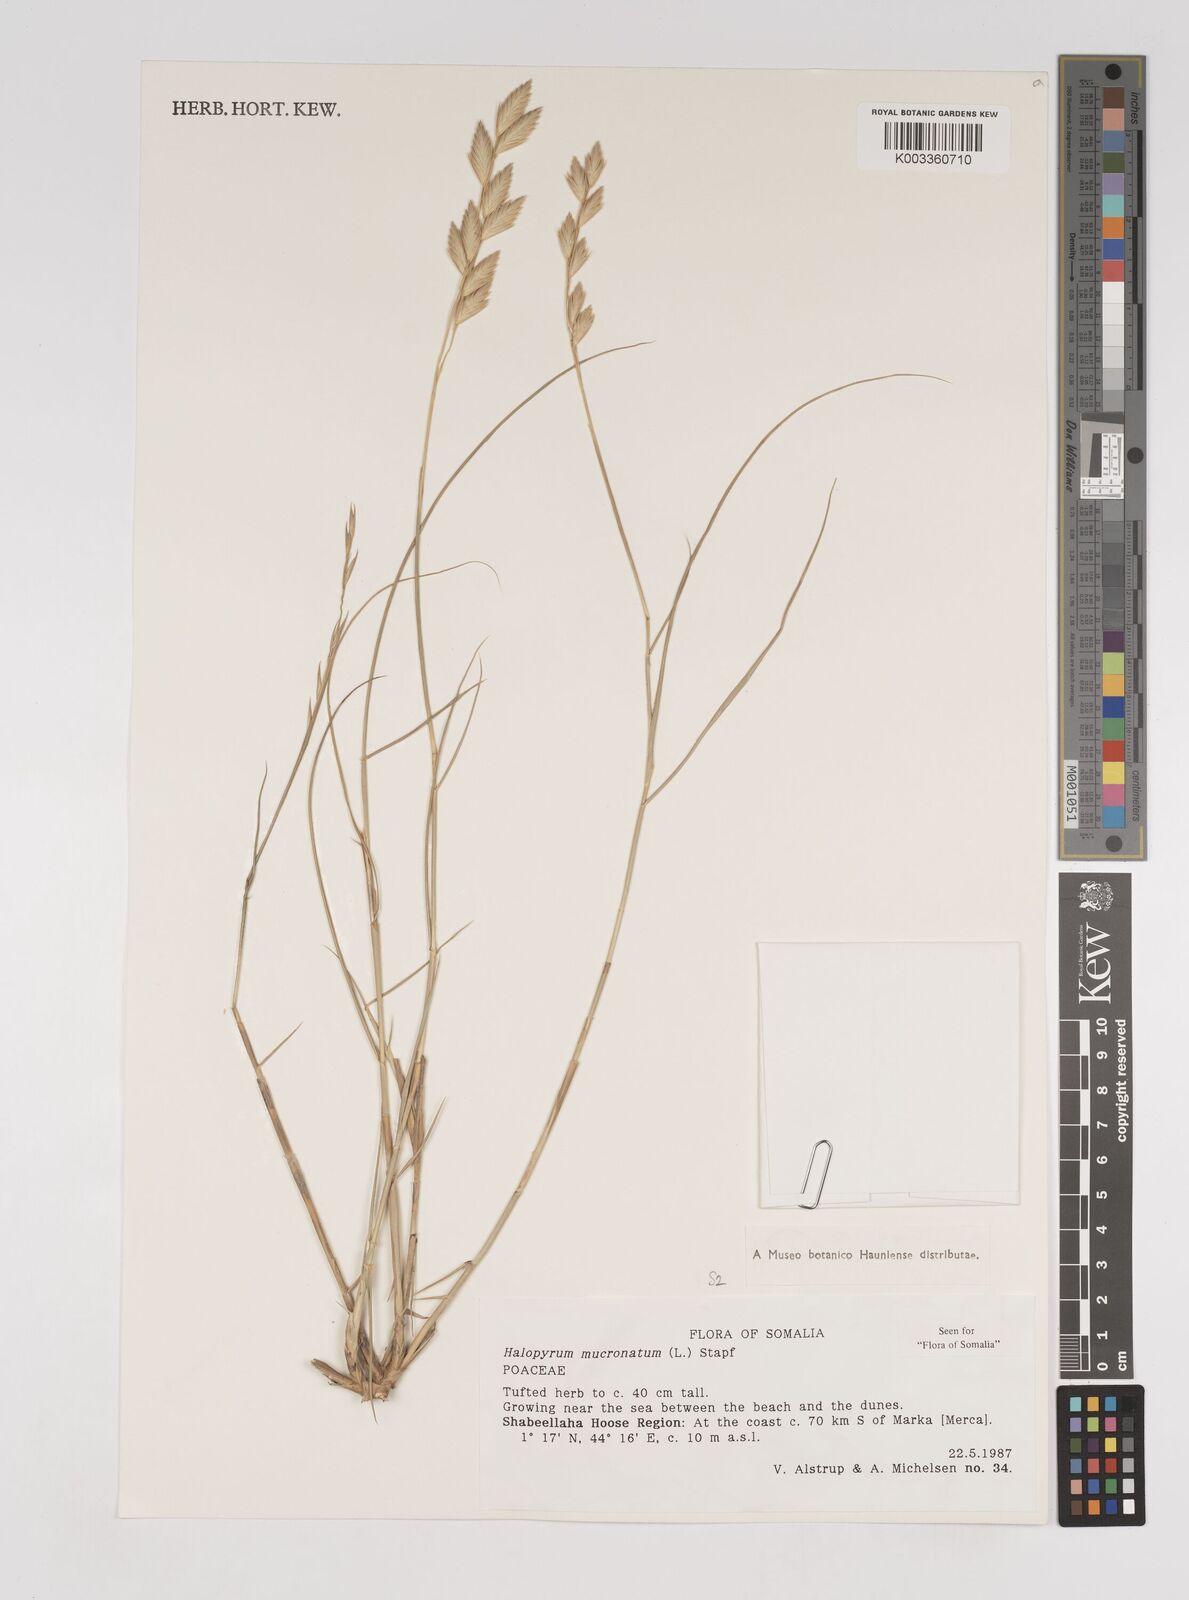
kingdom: Plantae
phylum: Tracheophyta
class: Liliopsida
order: Poales
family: Poaceae
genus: Halopyrum
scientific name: Halopyrum mucronatum
